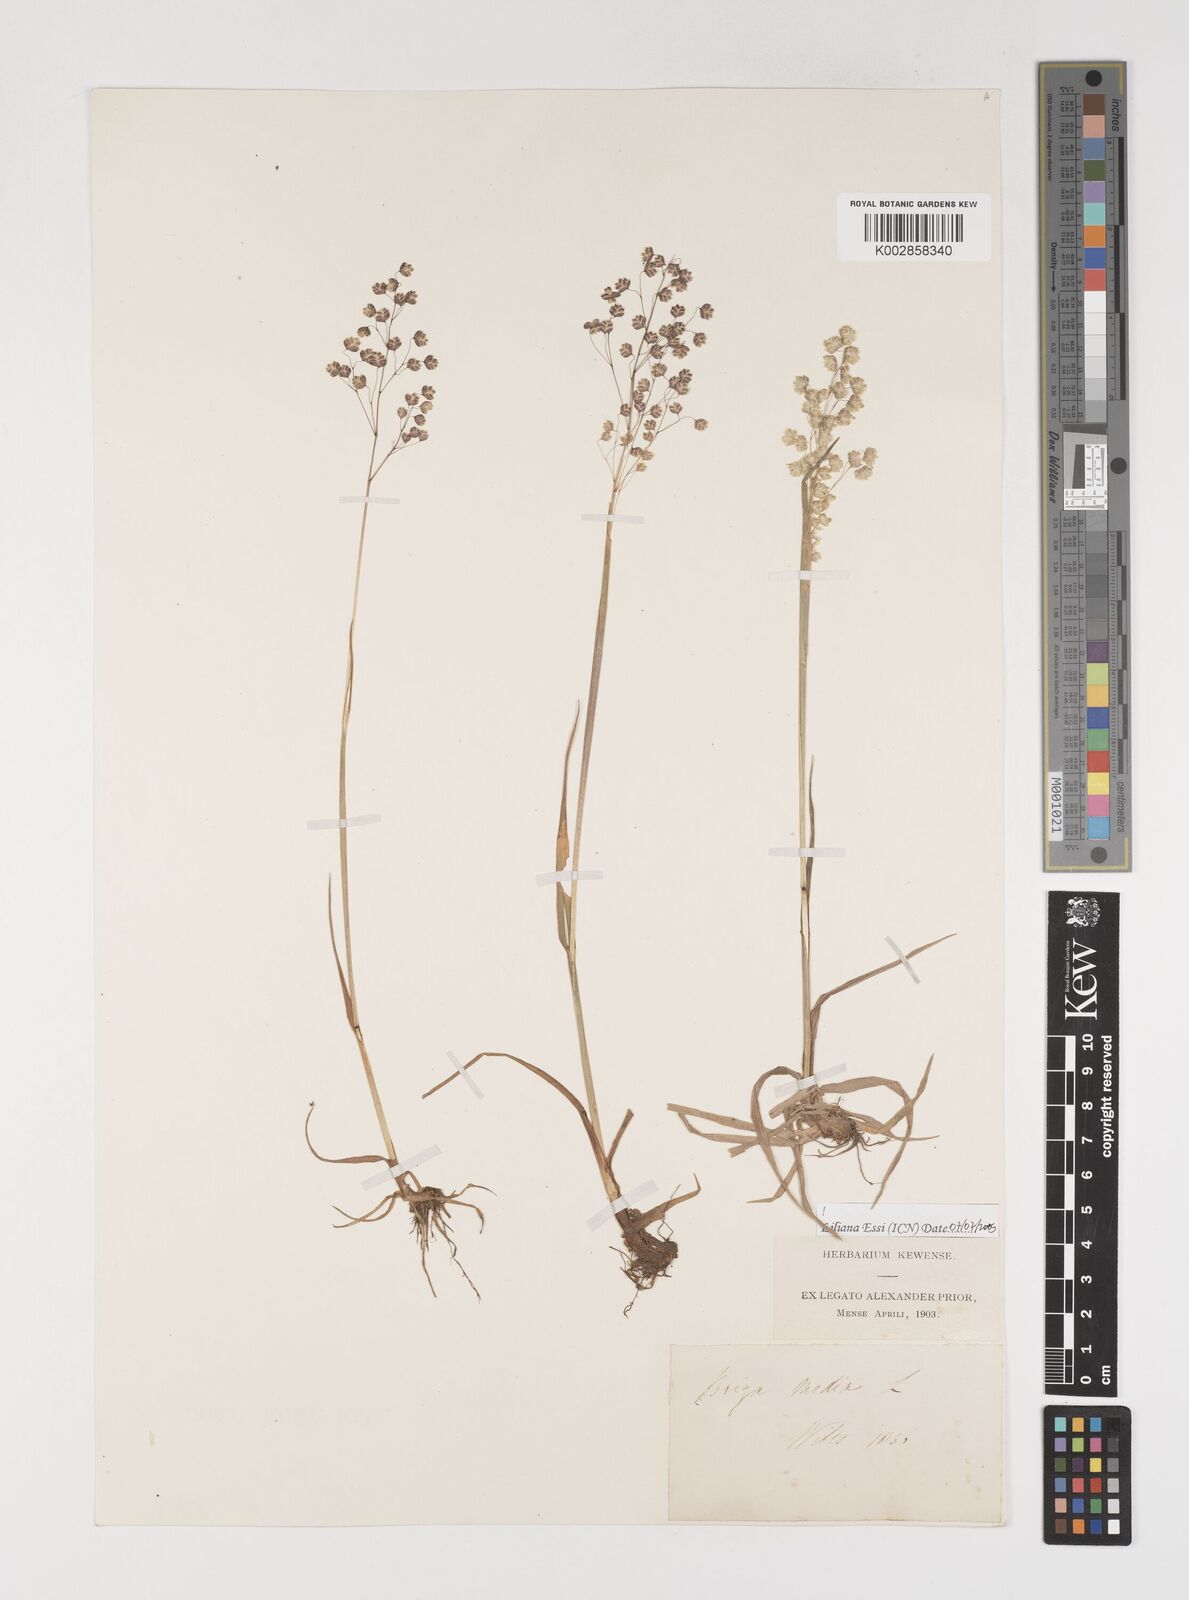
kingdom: Plantae
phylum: Tracheophyta
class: Liliopsida
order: Poales
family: Poaceae
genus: Briza
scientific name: Briza media
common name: Quaking grass
